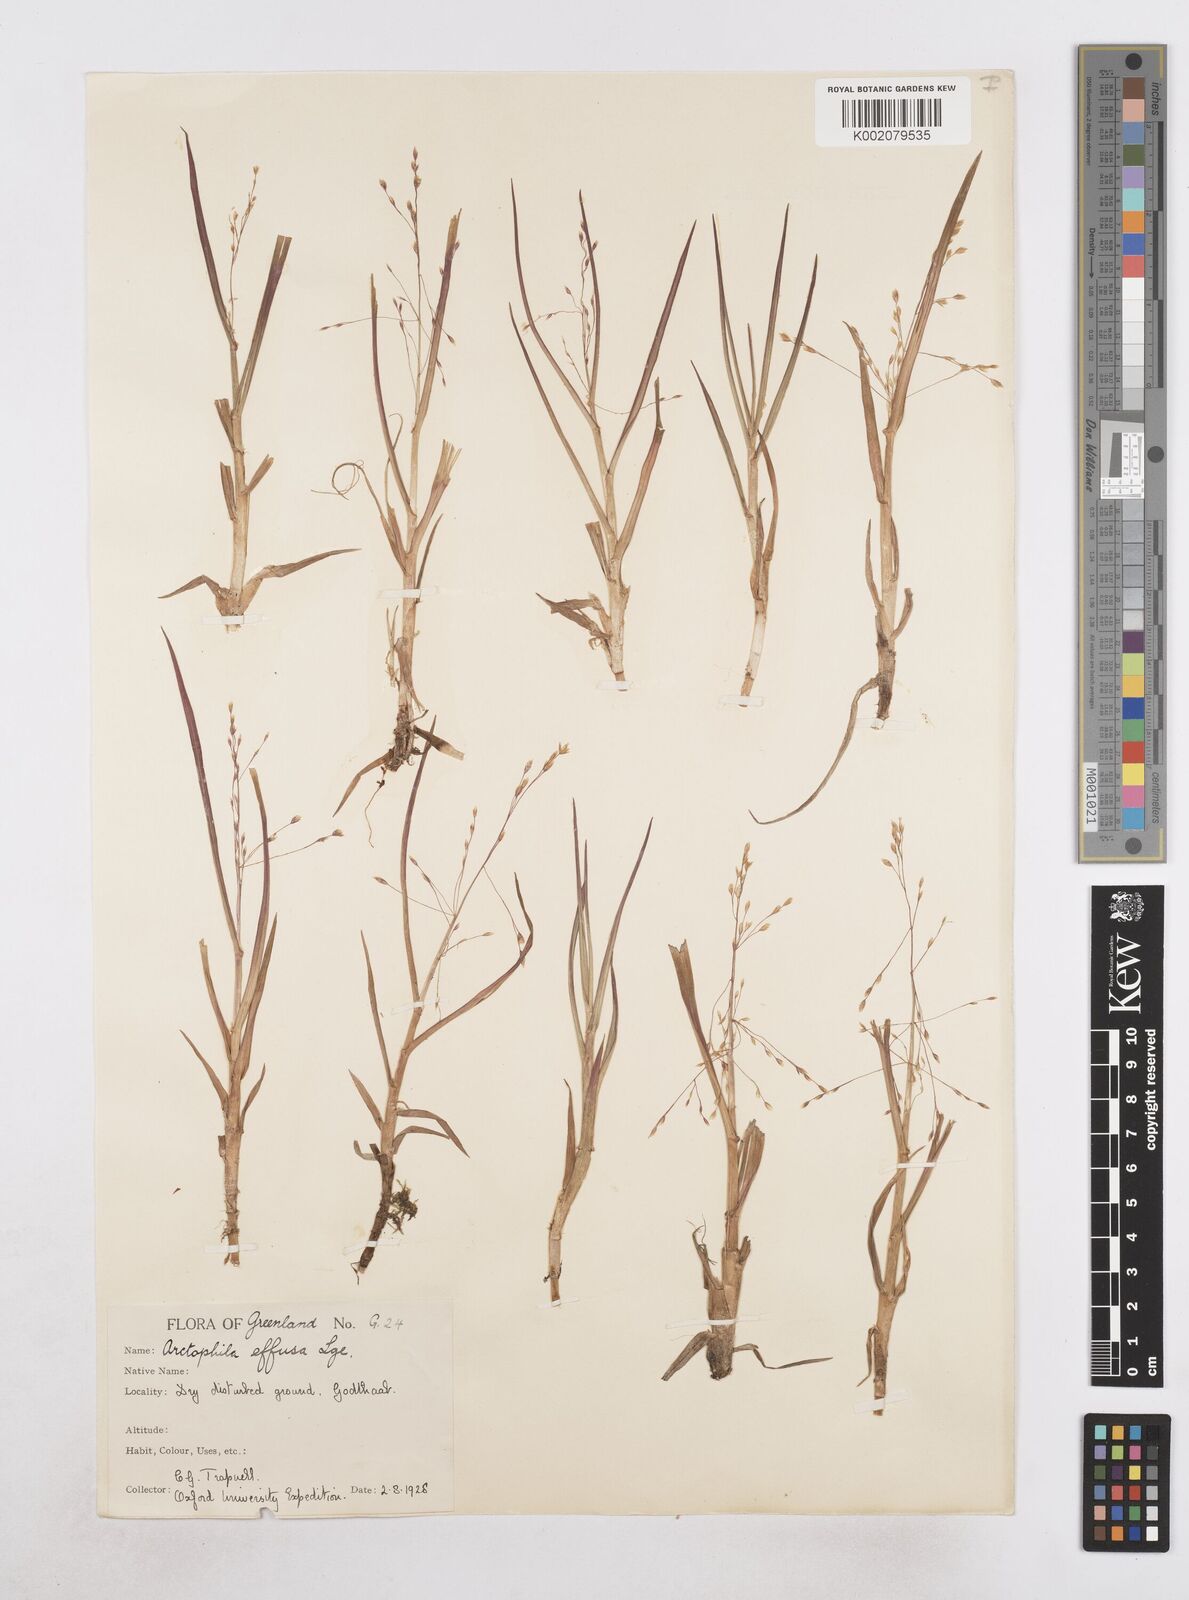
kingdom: Plantae
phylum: Tracheophyta
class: Liliopsida
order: Poales
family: Poaceae
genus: Dupontia
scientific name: Dupontia fulva
